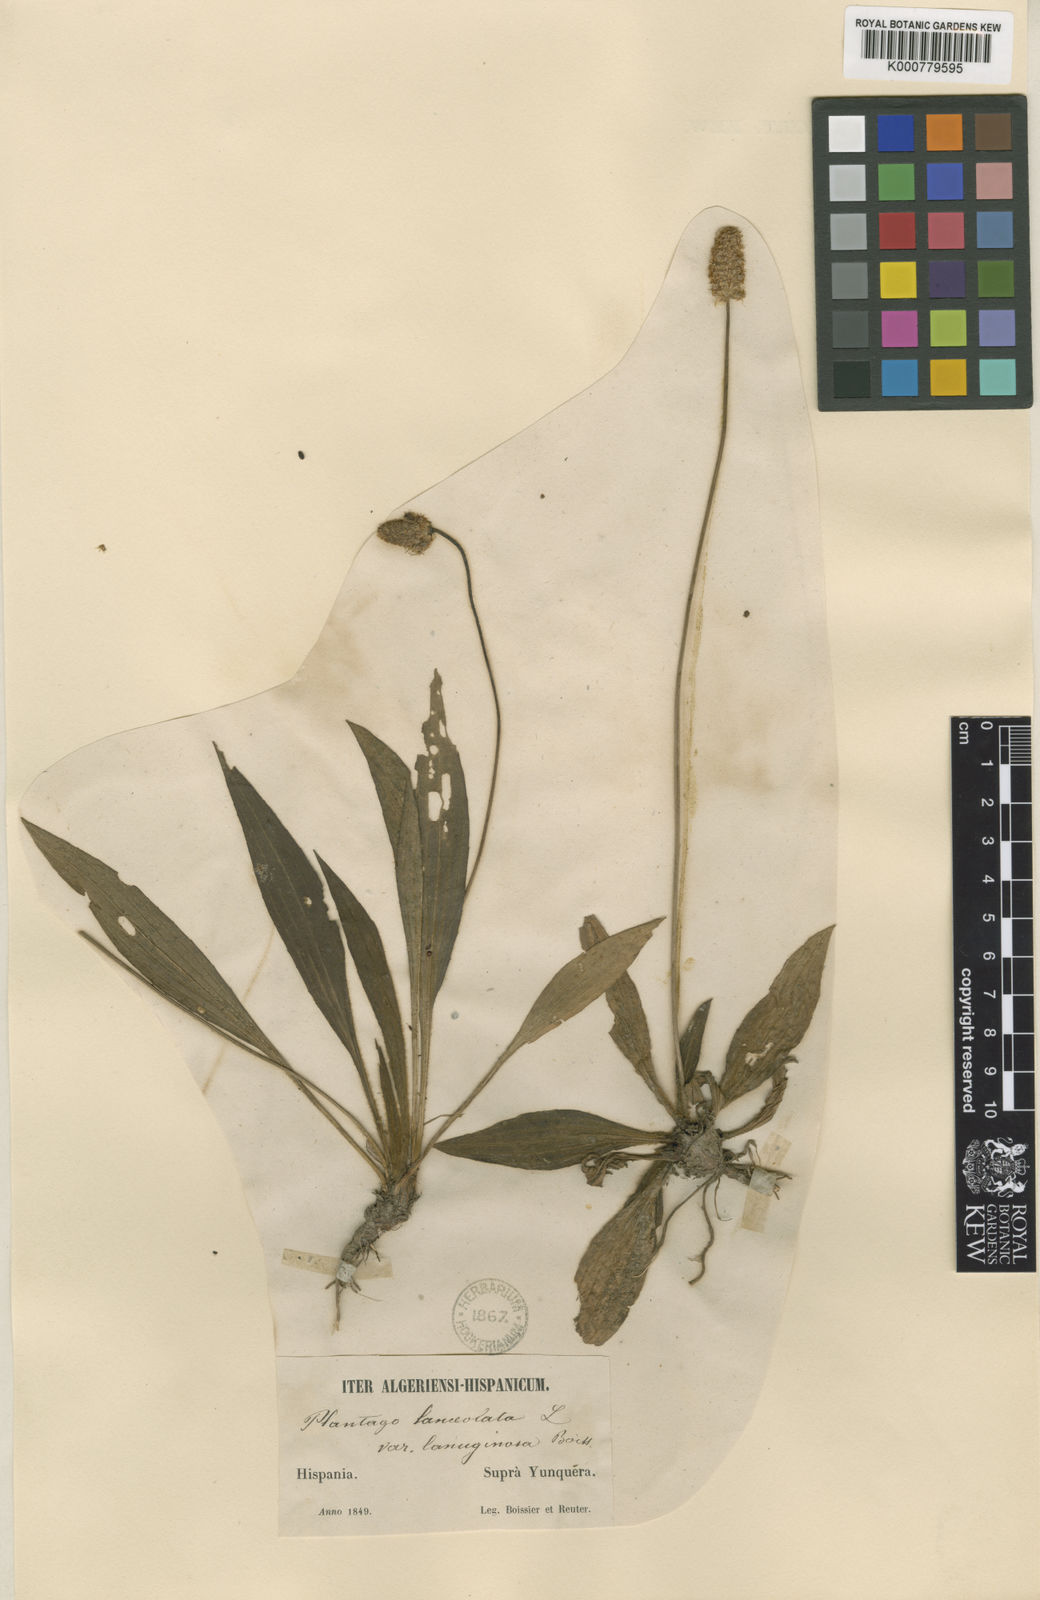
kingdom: Plantae
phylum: Tracheophyta
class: Magnoliopsida
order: Lamiales
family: Plantaginaceae
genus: Plantago
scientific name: Plantago lanceolata
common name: Ribwort plantain
